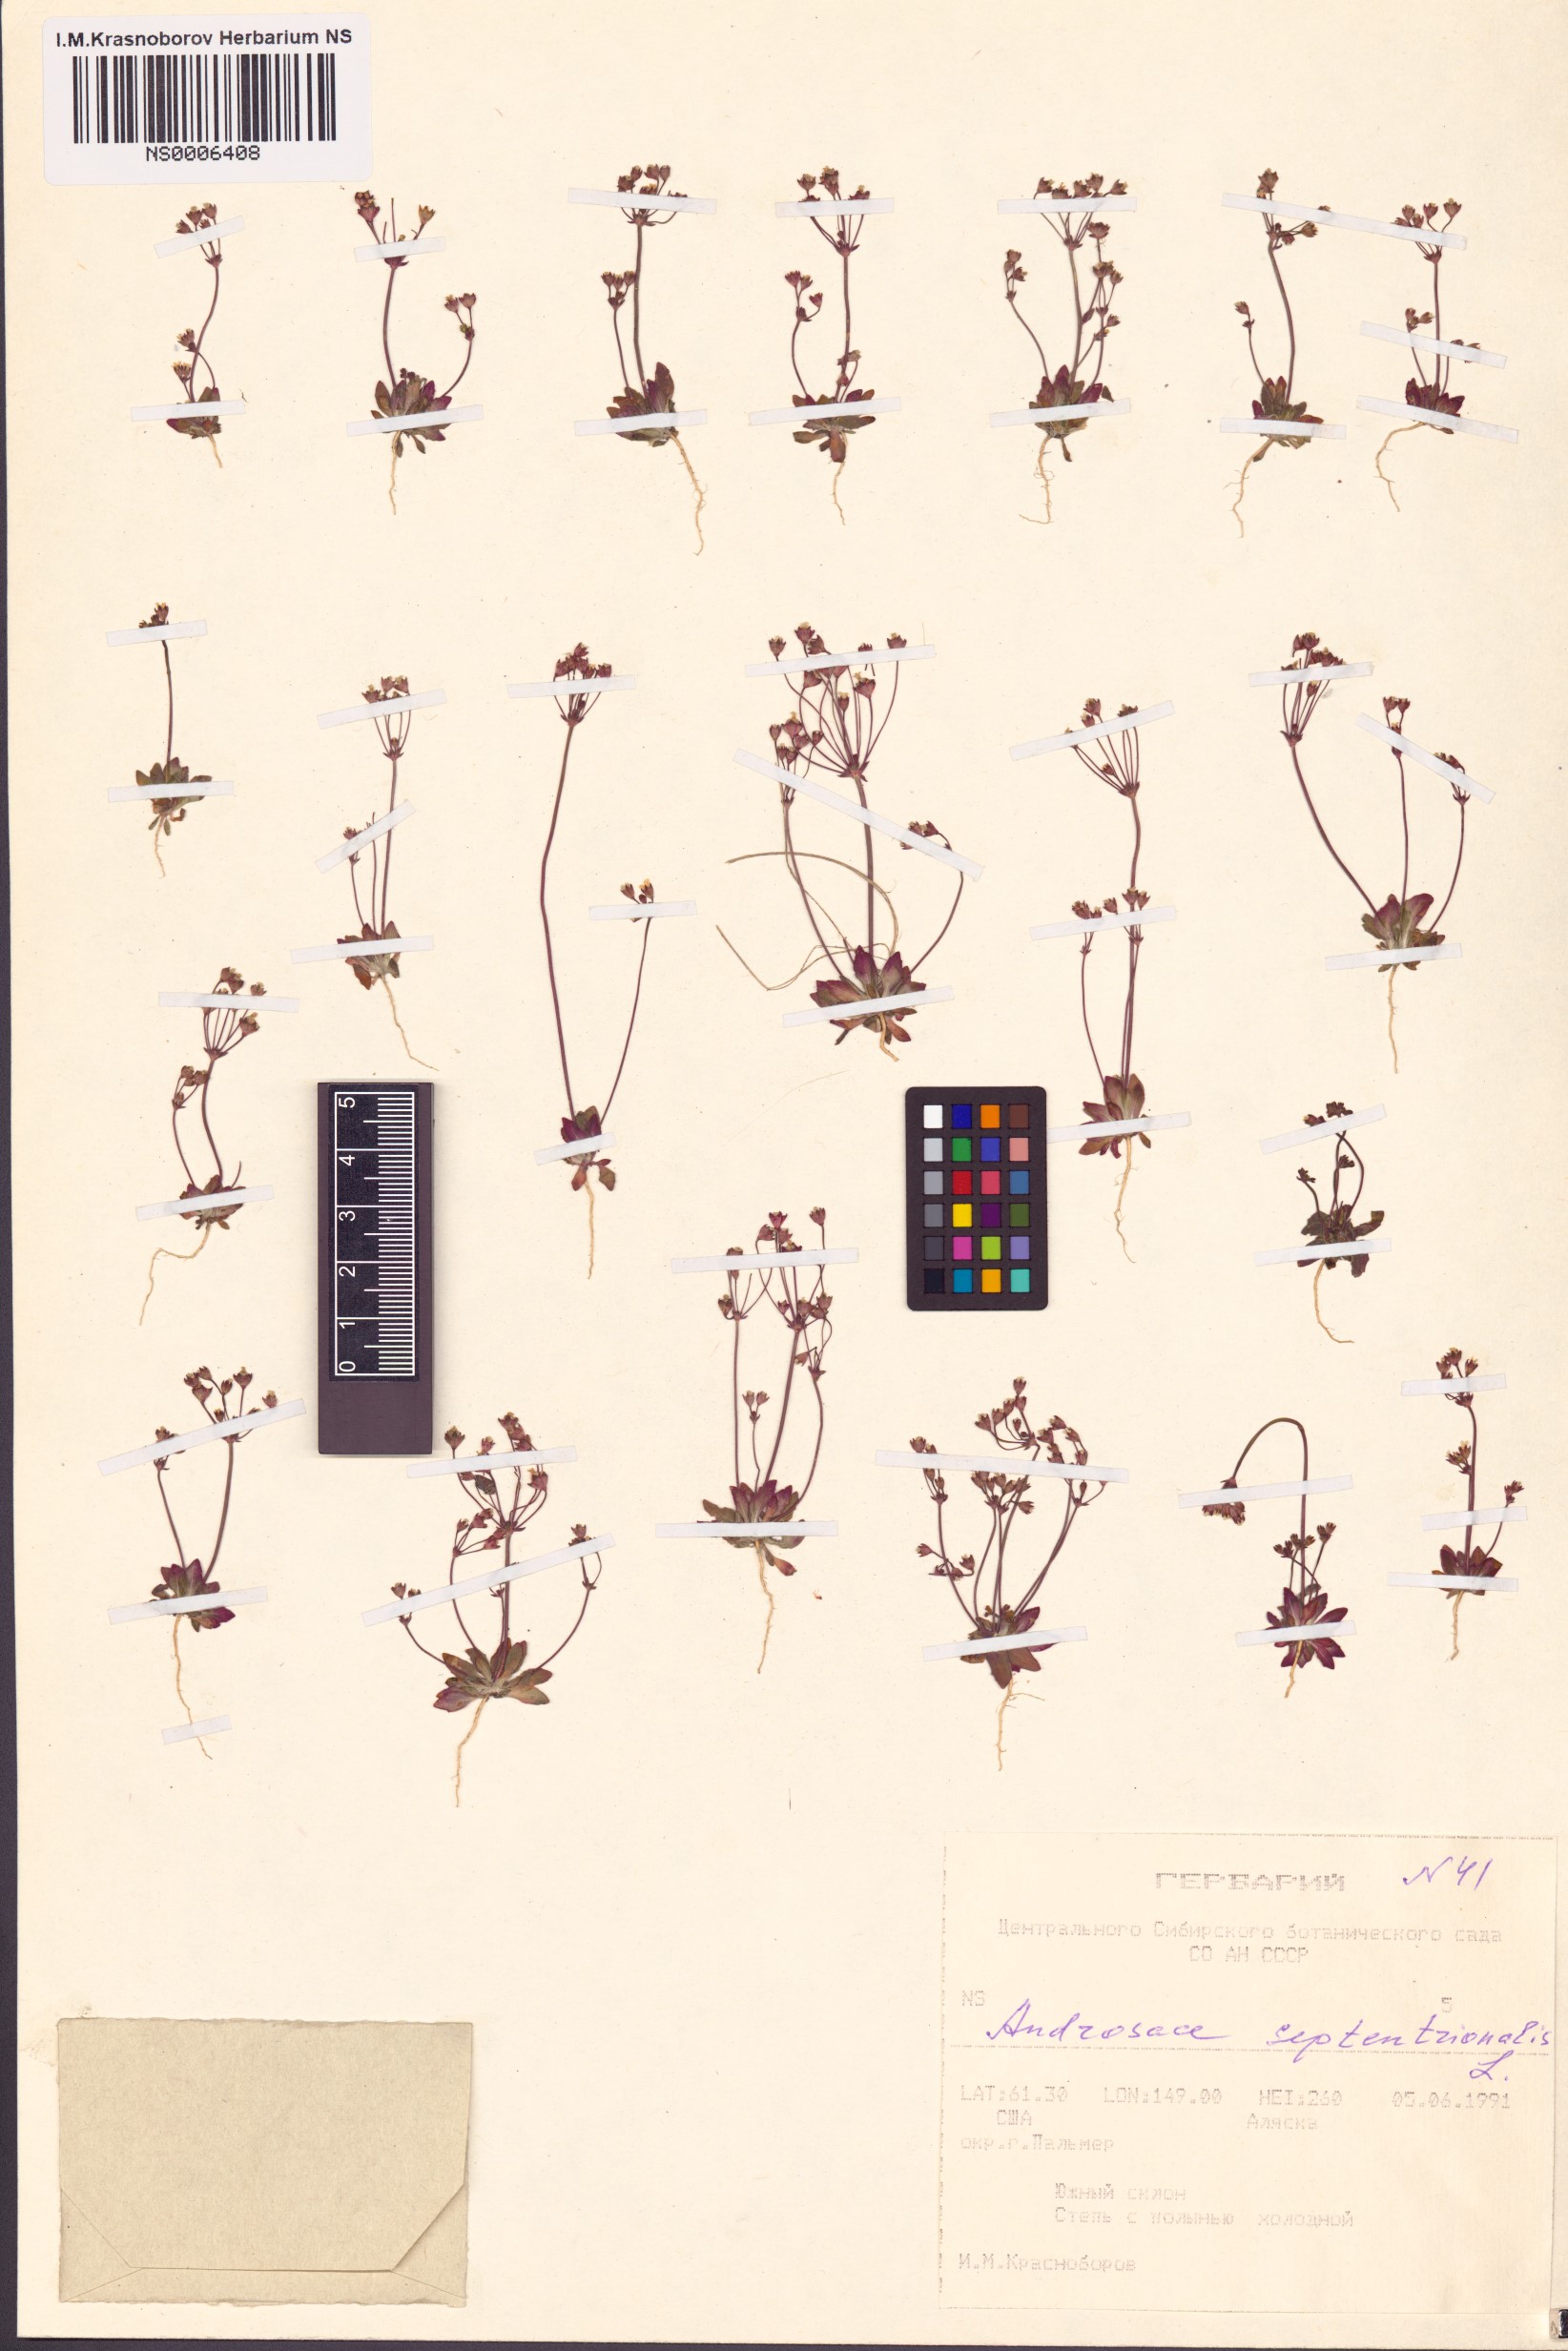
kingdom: Plantae
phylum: Tracheophyta
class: Magnoliopsida
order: Ericales
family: Primulaceae
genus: Androsace
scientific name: Androsace septentrionalis
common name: Hairy northern fairy-candelabra
